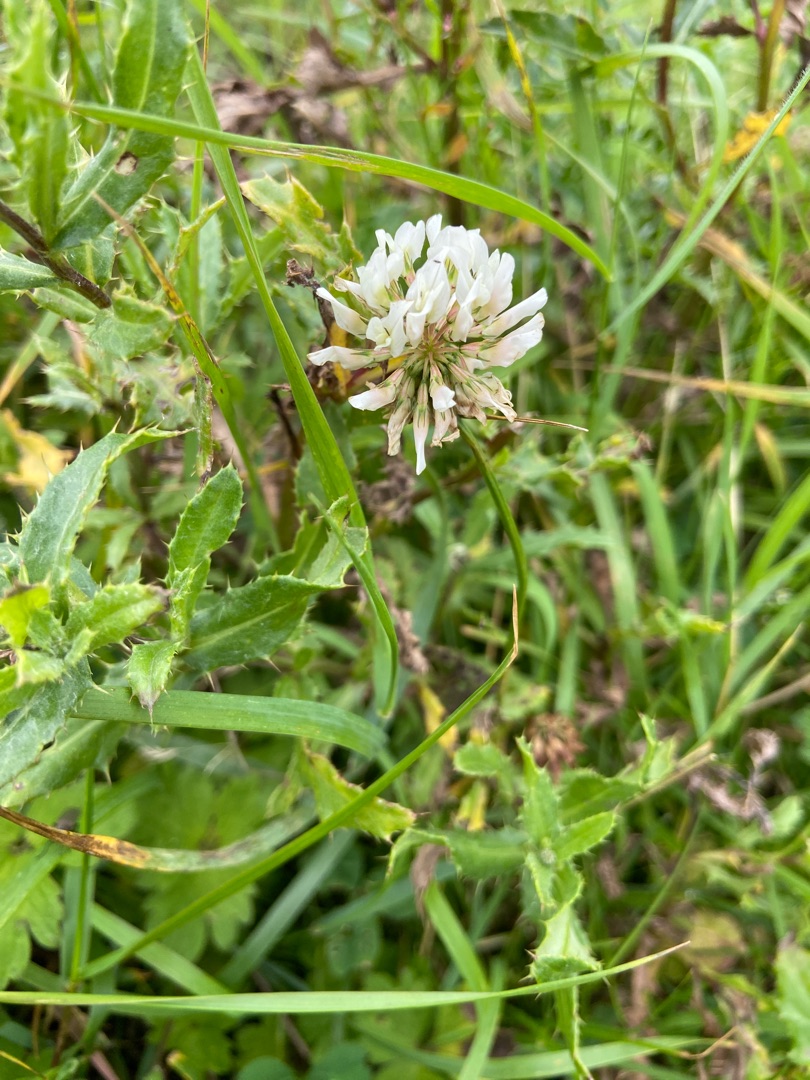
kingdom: Plantae
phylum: Tracheophyta
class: Magnoliopsida
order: Fabales
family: Fabaceae
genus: Trifolium
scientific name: Trifolium repens
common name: Hvid-kløver
